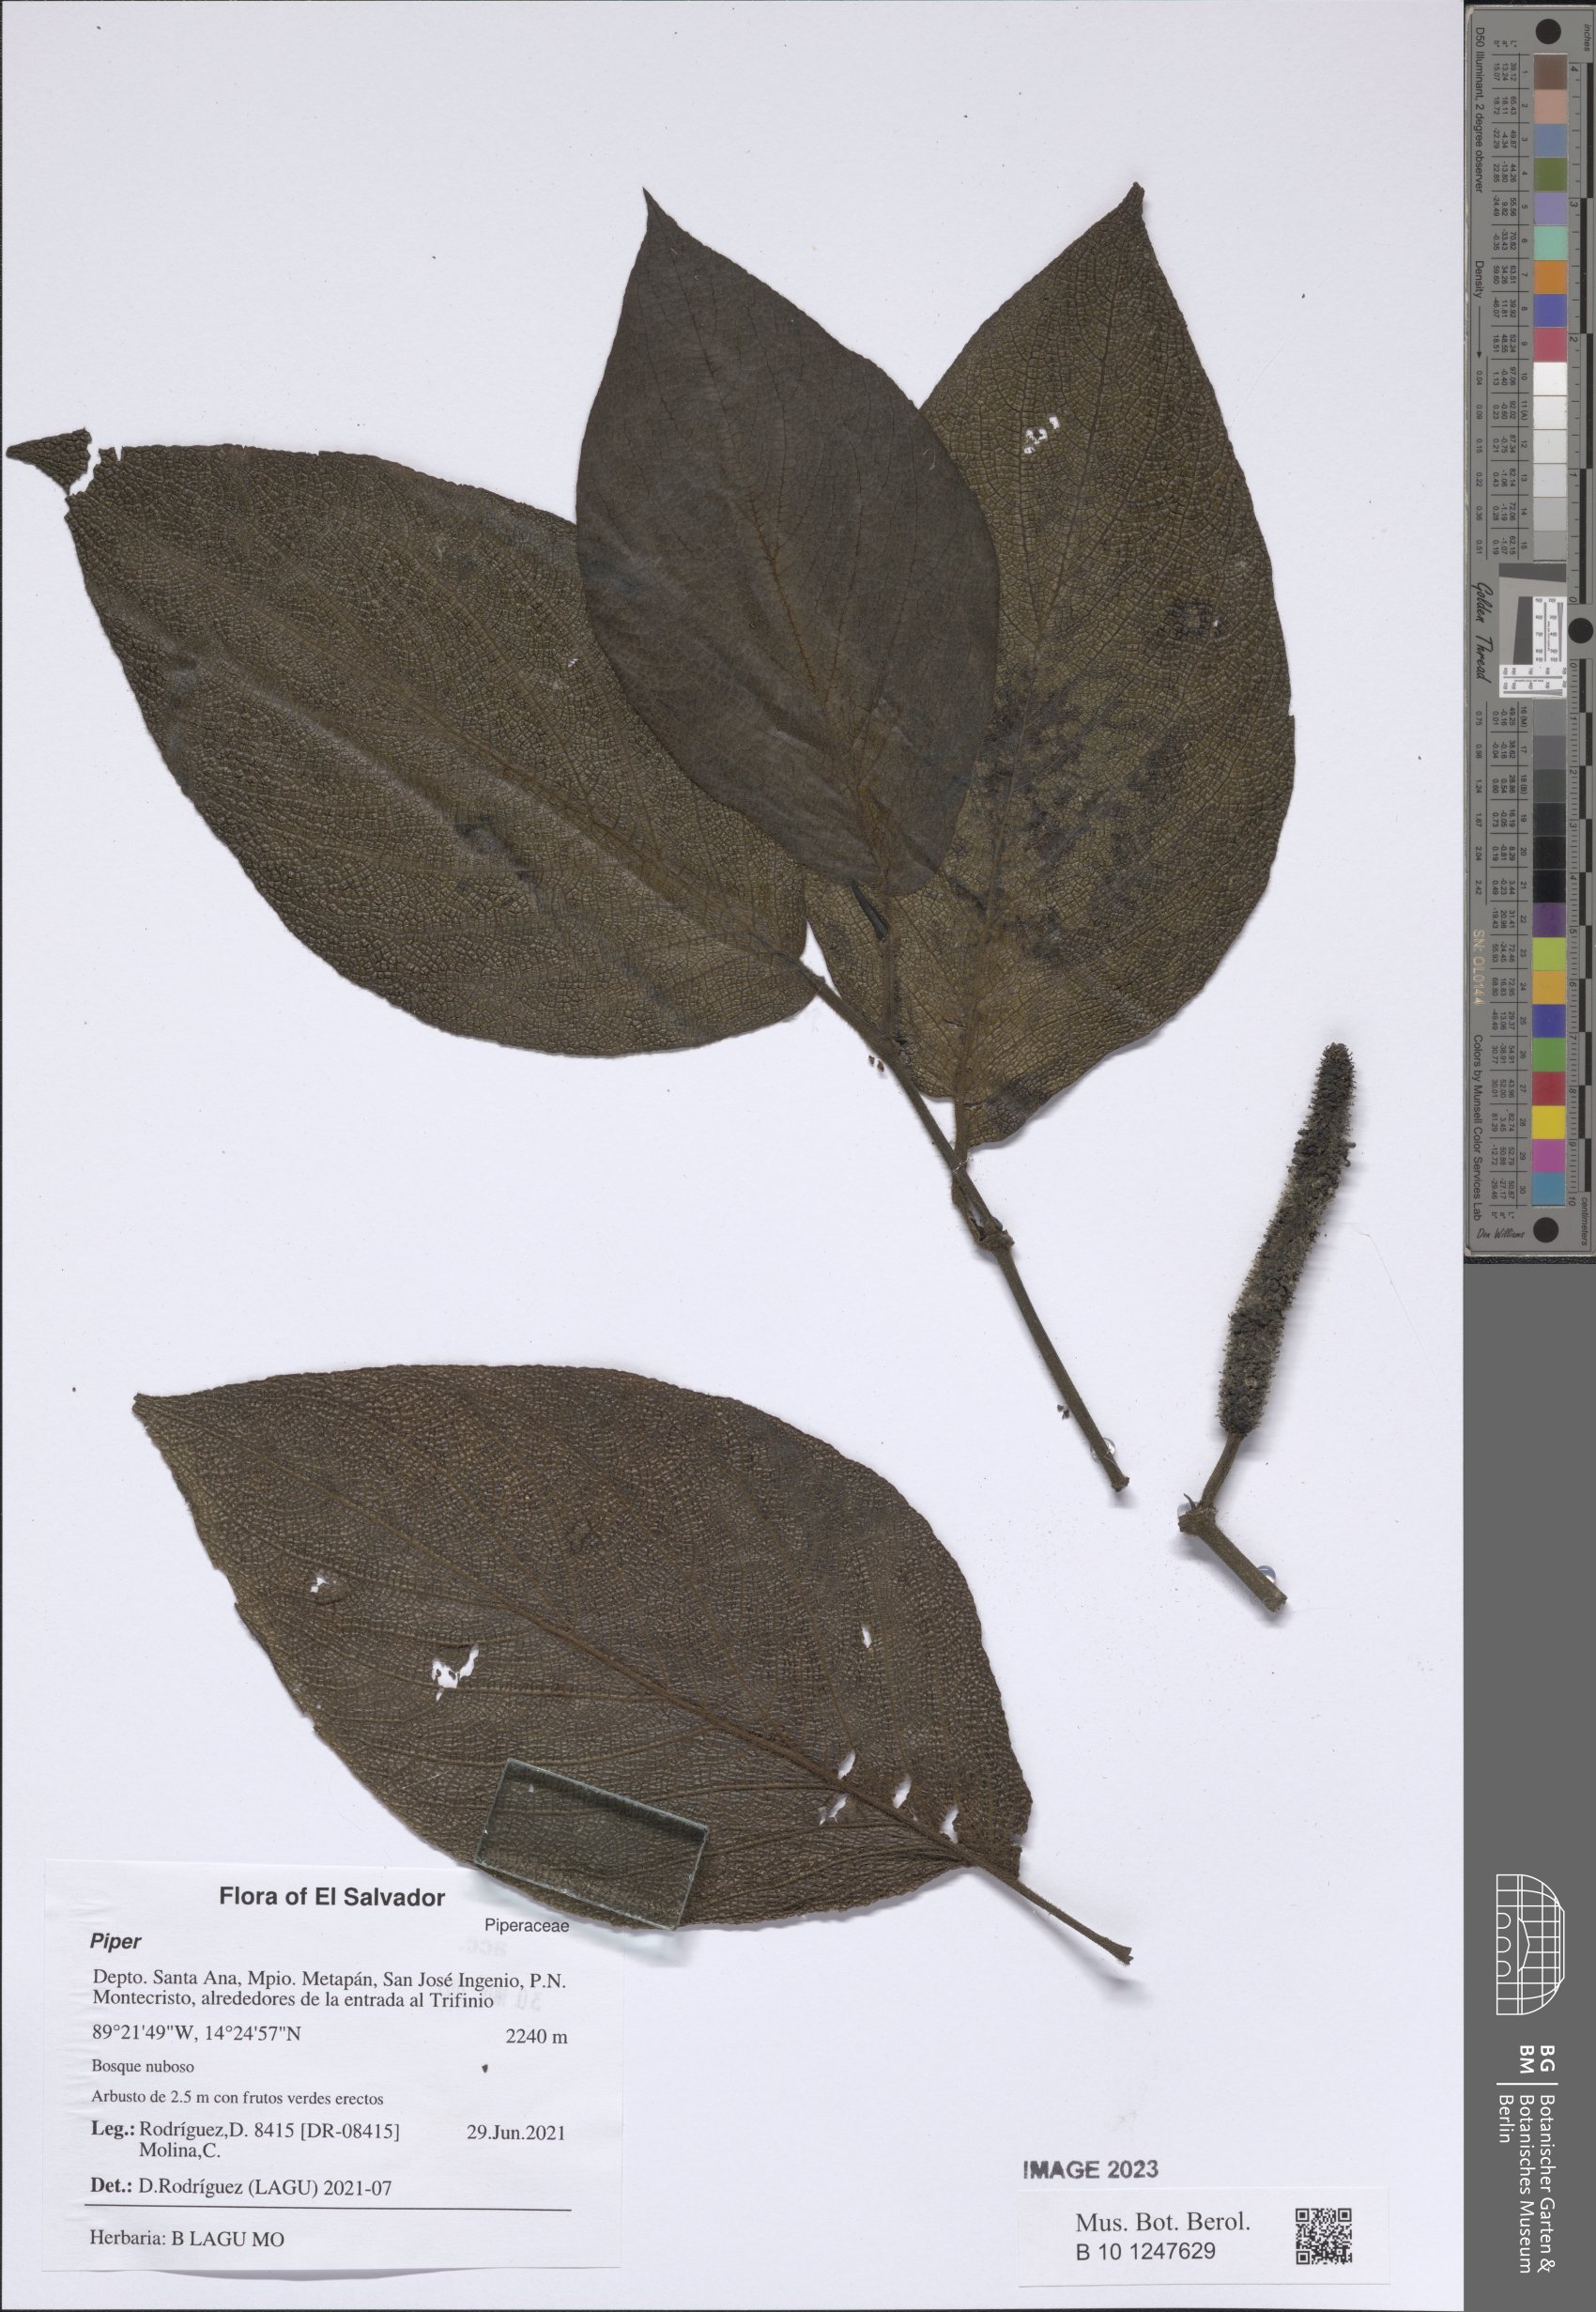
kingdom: Plantae
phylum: Tracheophyta
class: Magnoliopsida
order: Piperales
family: Piperaceae
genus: Piper
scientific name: Piper
